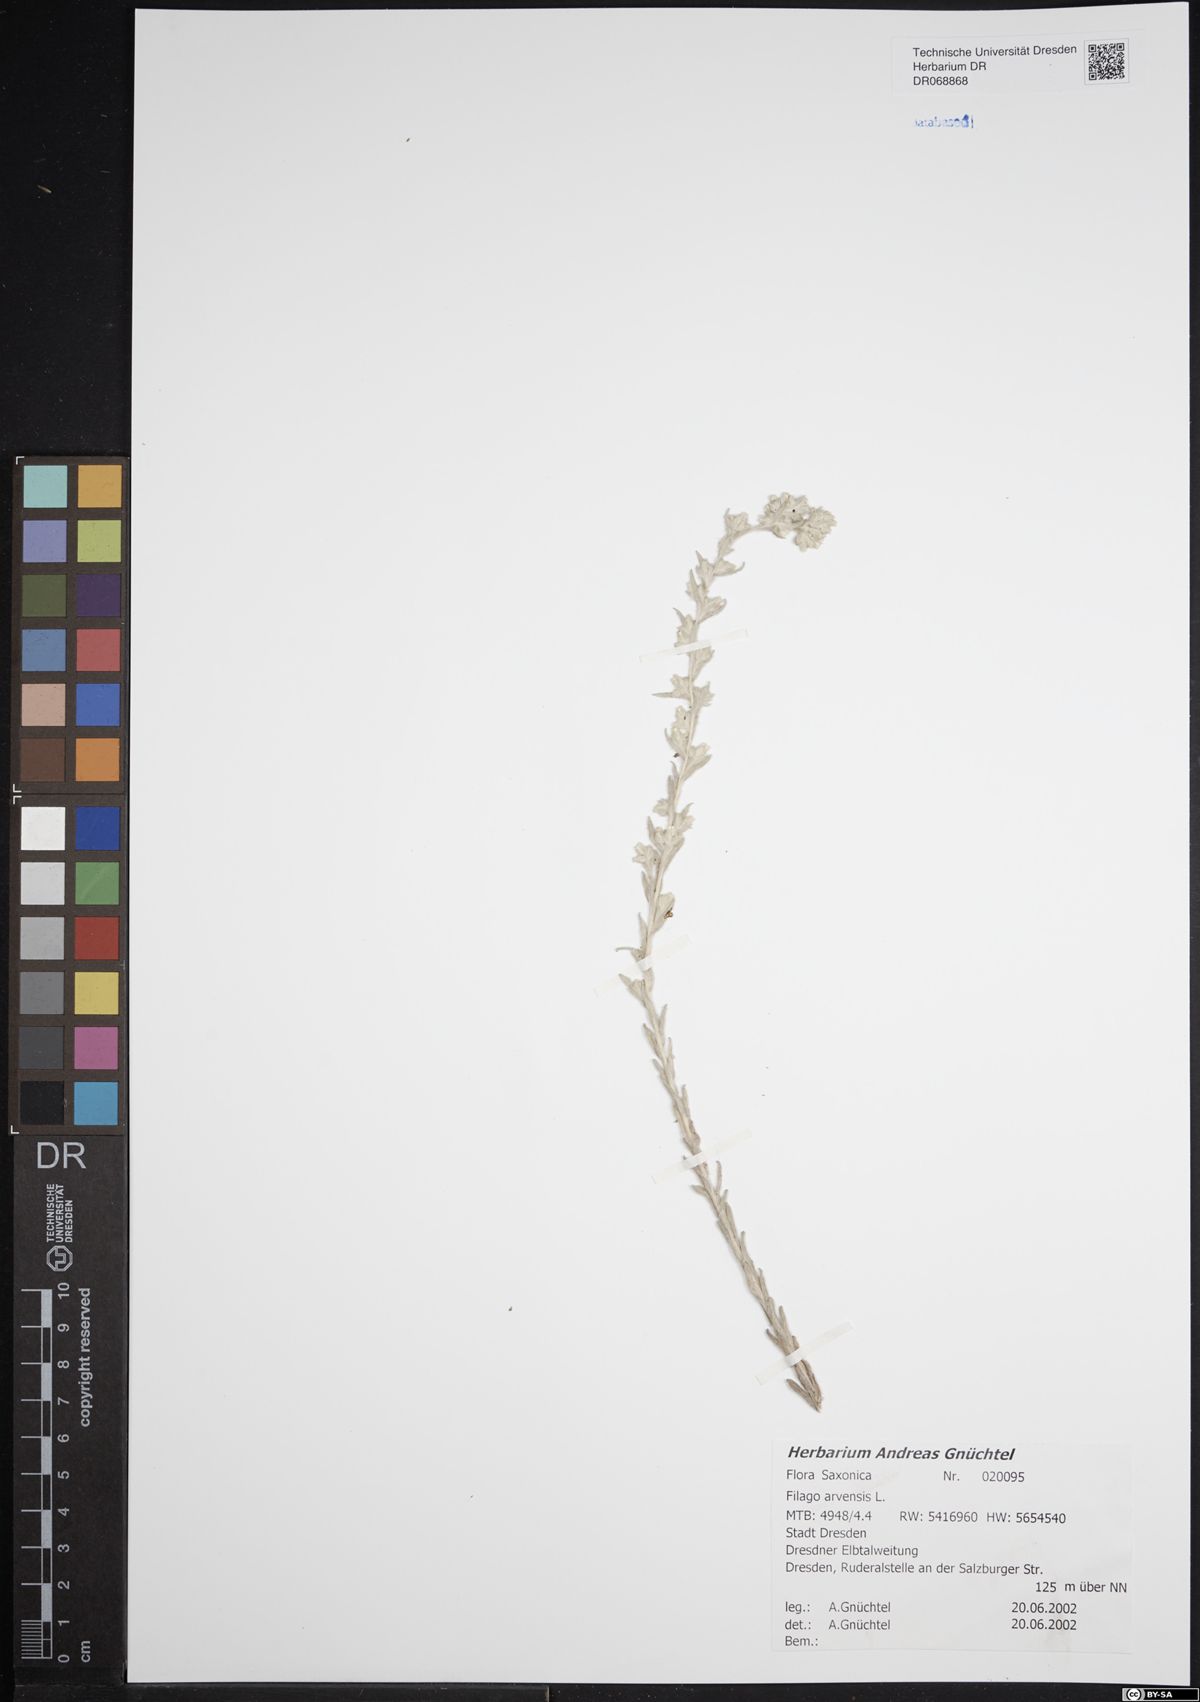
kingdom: Plantae
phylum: Tracheophyta
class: Magnoliopsida
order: Asterales
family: Asteraceae
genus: Filago
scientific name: Filago arvensis
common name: Field cudweed
